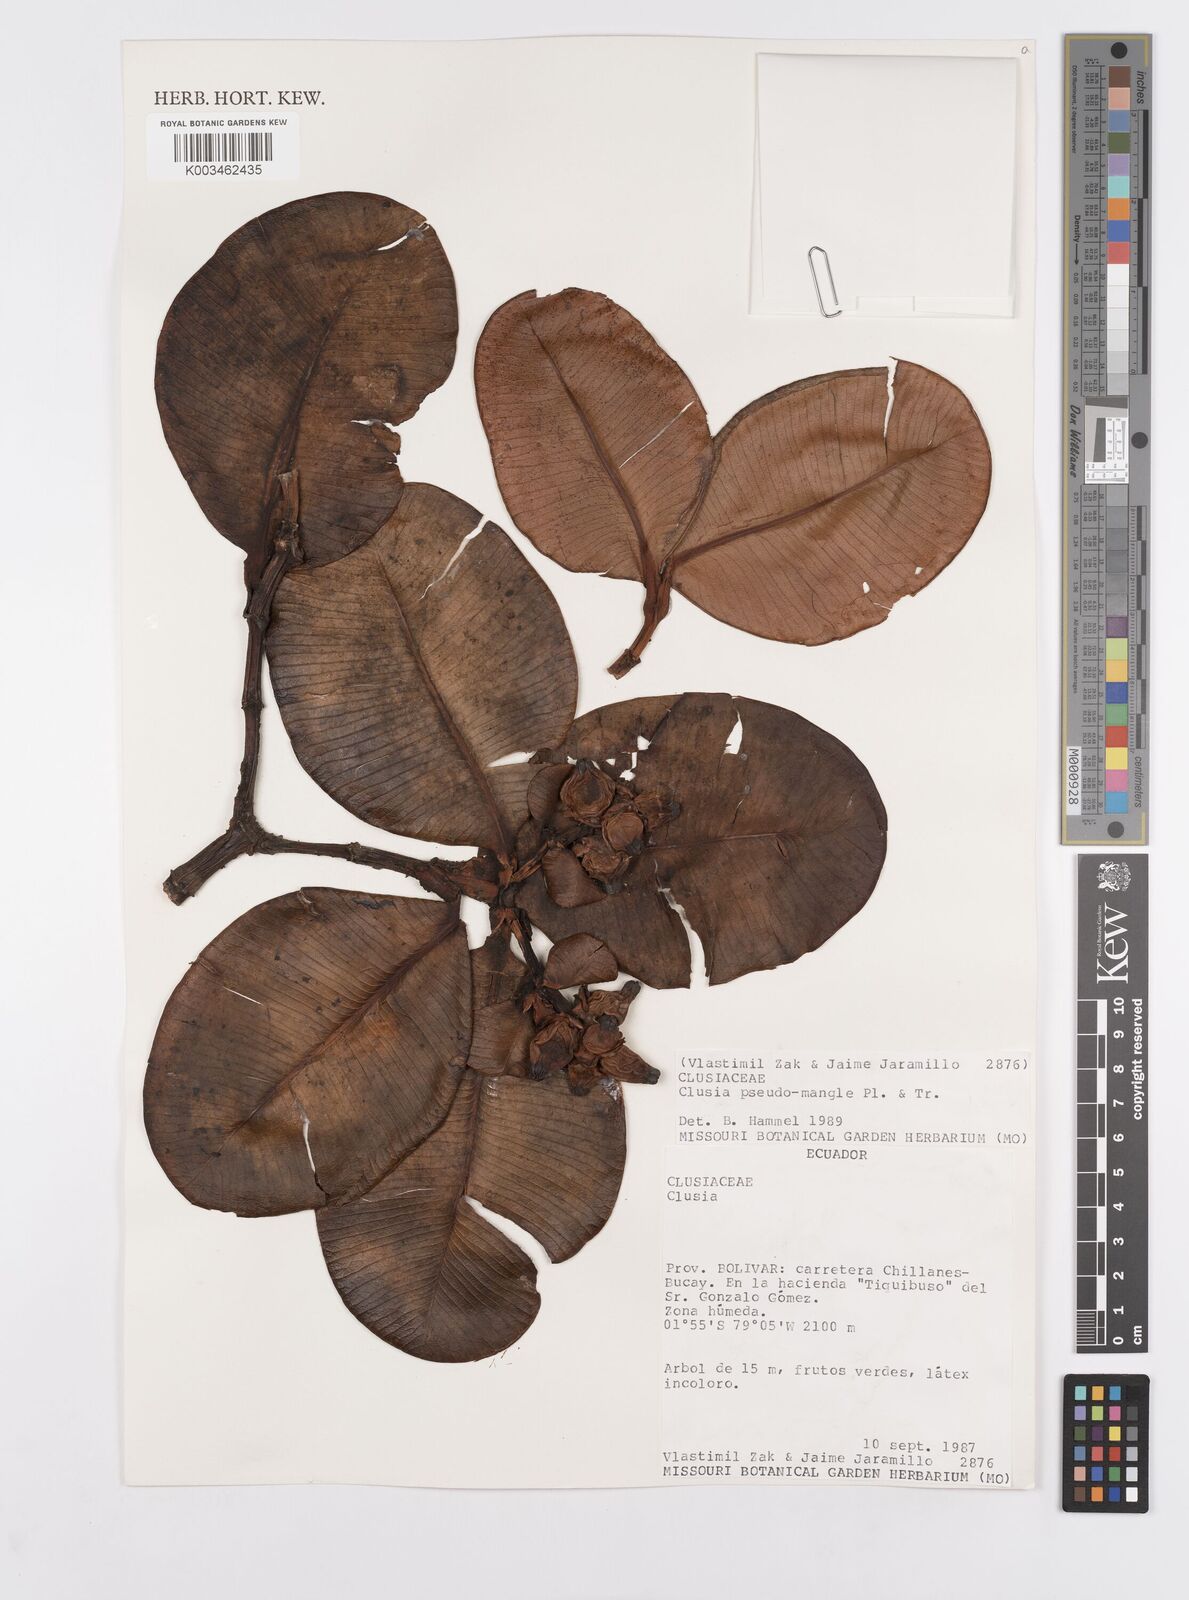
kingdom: Plantae
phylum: Tracheophyta
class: Magnoliopsida
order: Malpighiales
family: Clusiaceae
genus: Clusia
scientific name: Clusia pseudomangle
